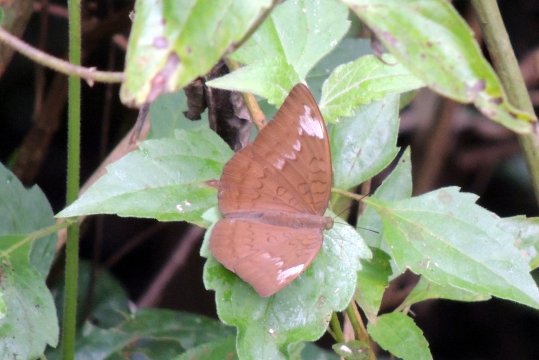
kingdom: Animalia
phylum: Arthropoda
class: Insecta
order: Lepidoptera
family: Nymphalidae
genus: Tanaecia
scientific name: Tanaecia julii
